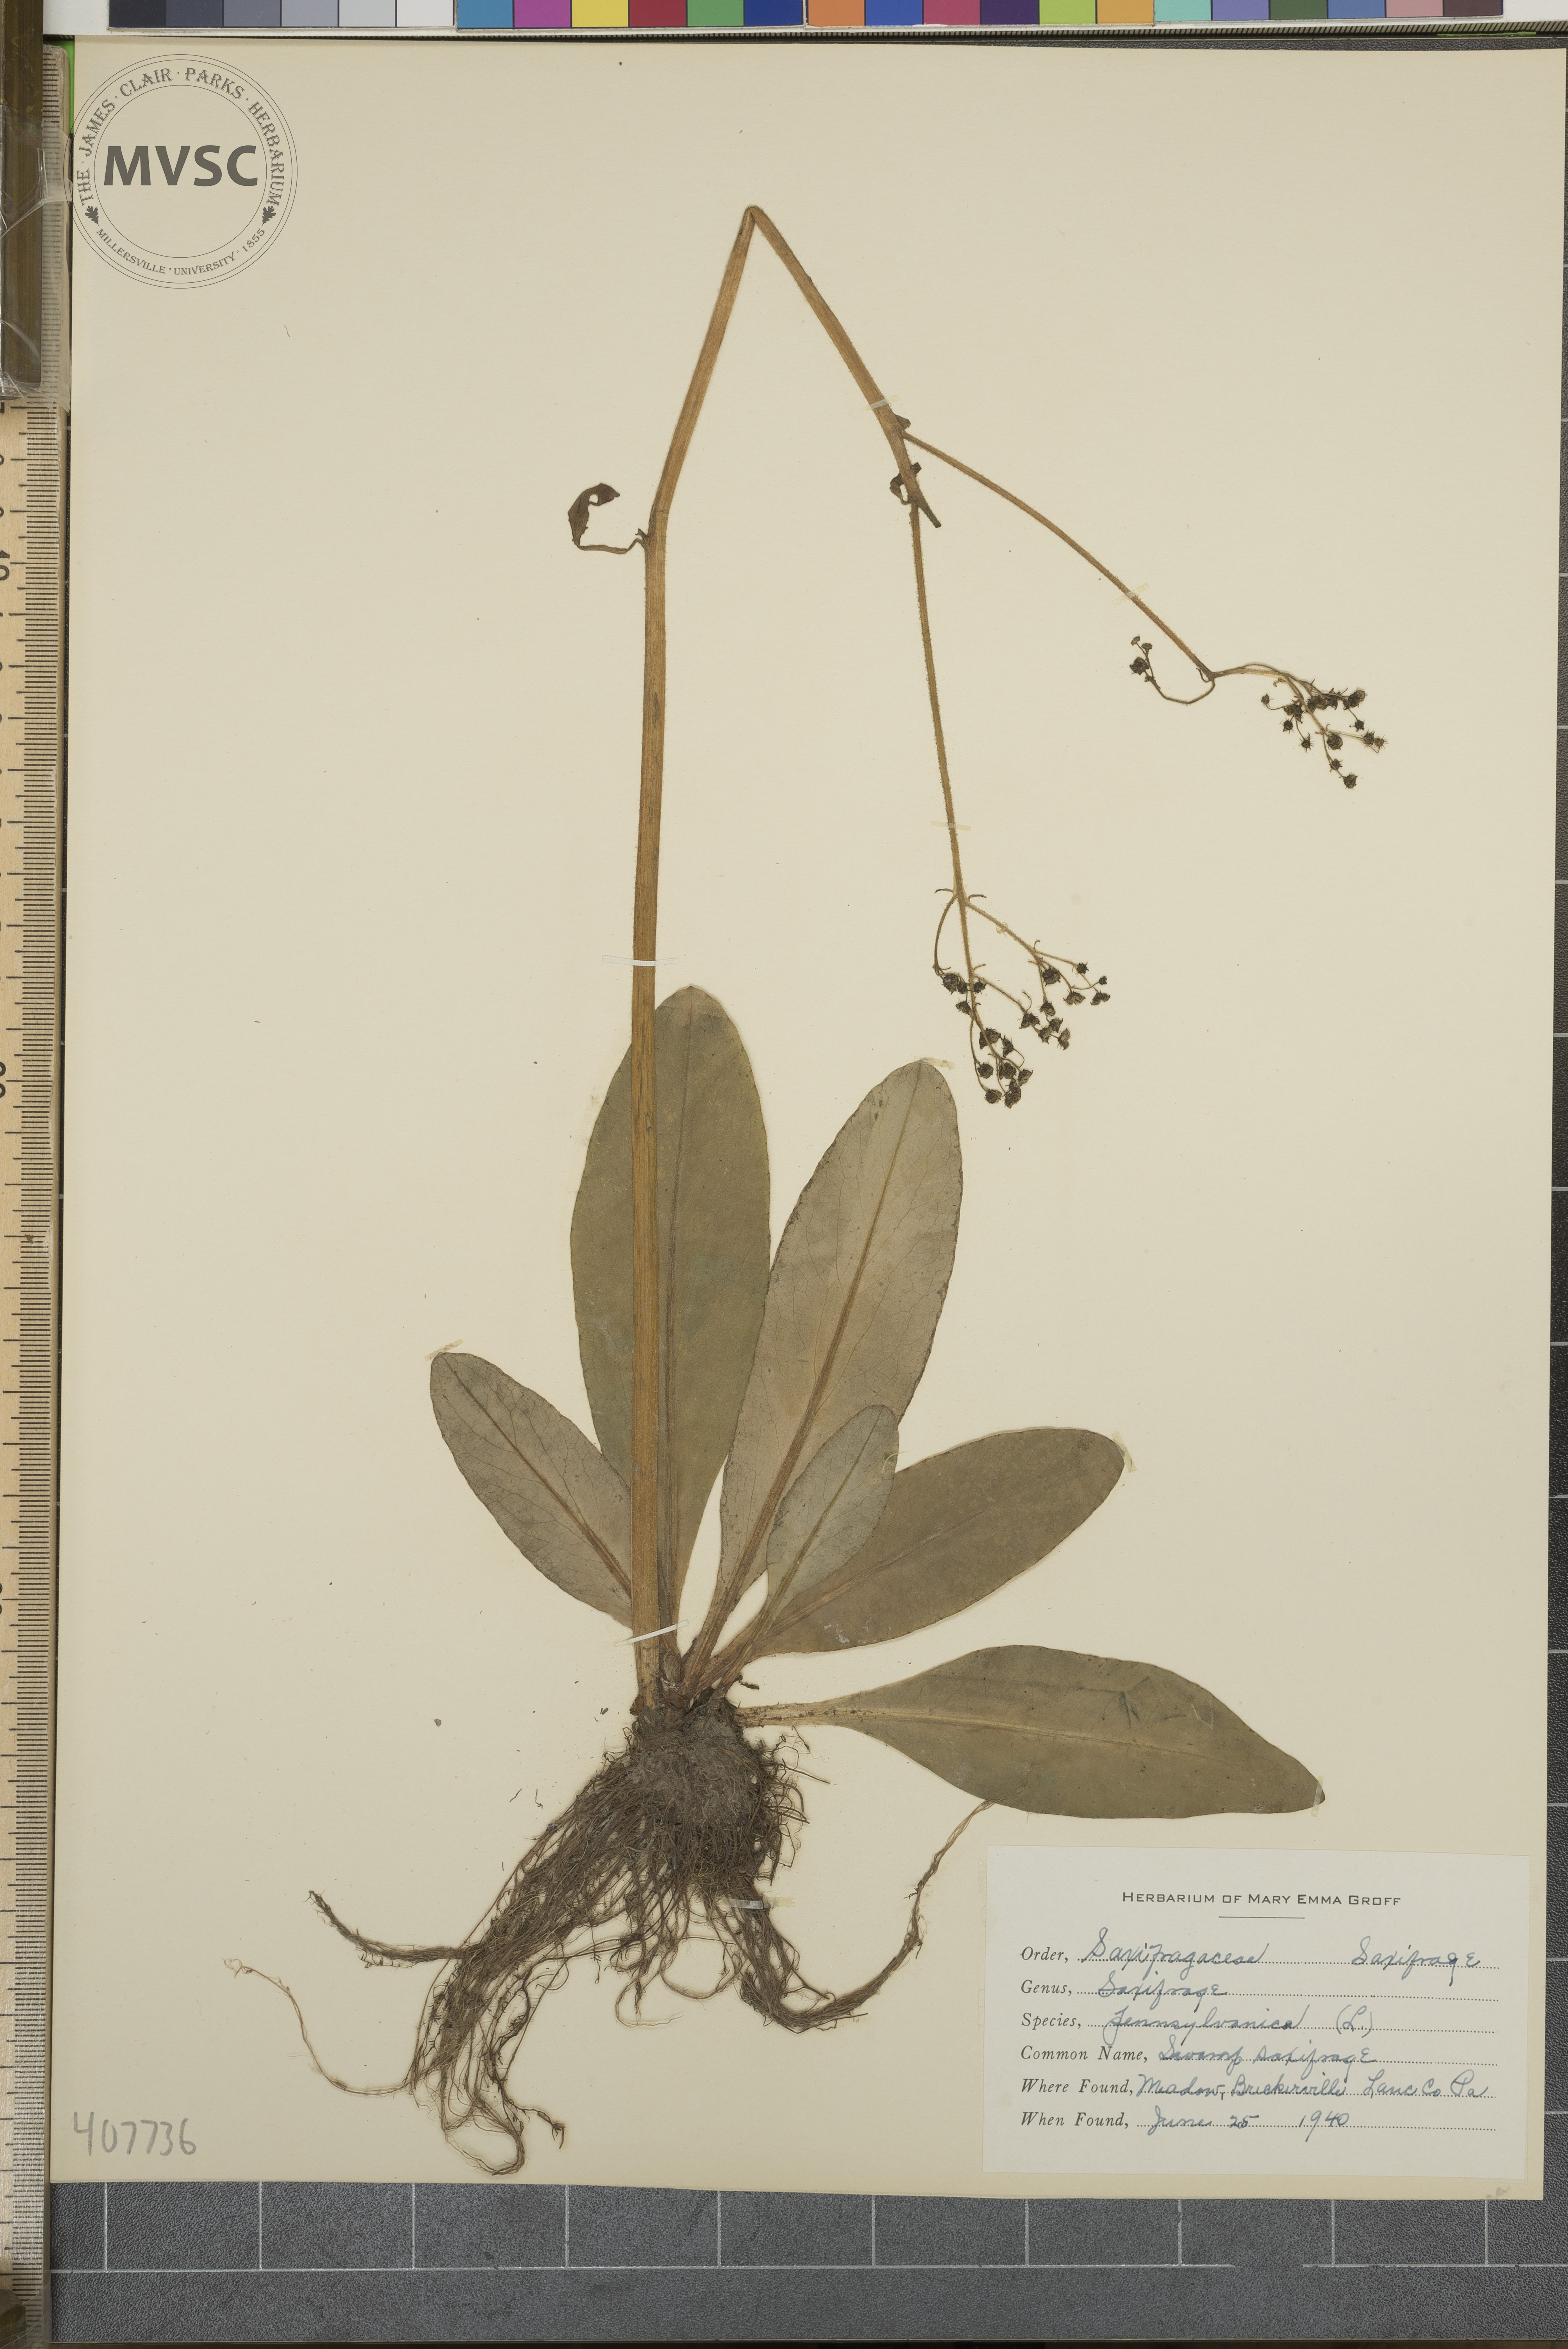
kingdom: Plantae
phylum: Tracheophyta
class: Magnoliopsida
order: Saxifragales
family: Saxifragaceae
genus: Micranthes
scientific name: Micranthes pensylvanica
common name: swamp saxifrage
